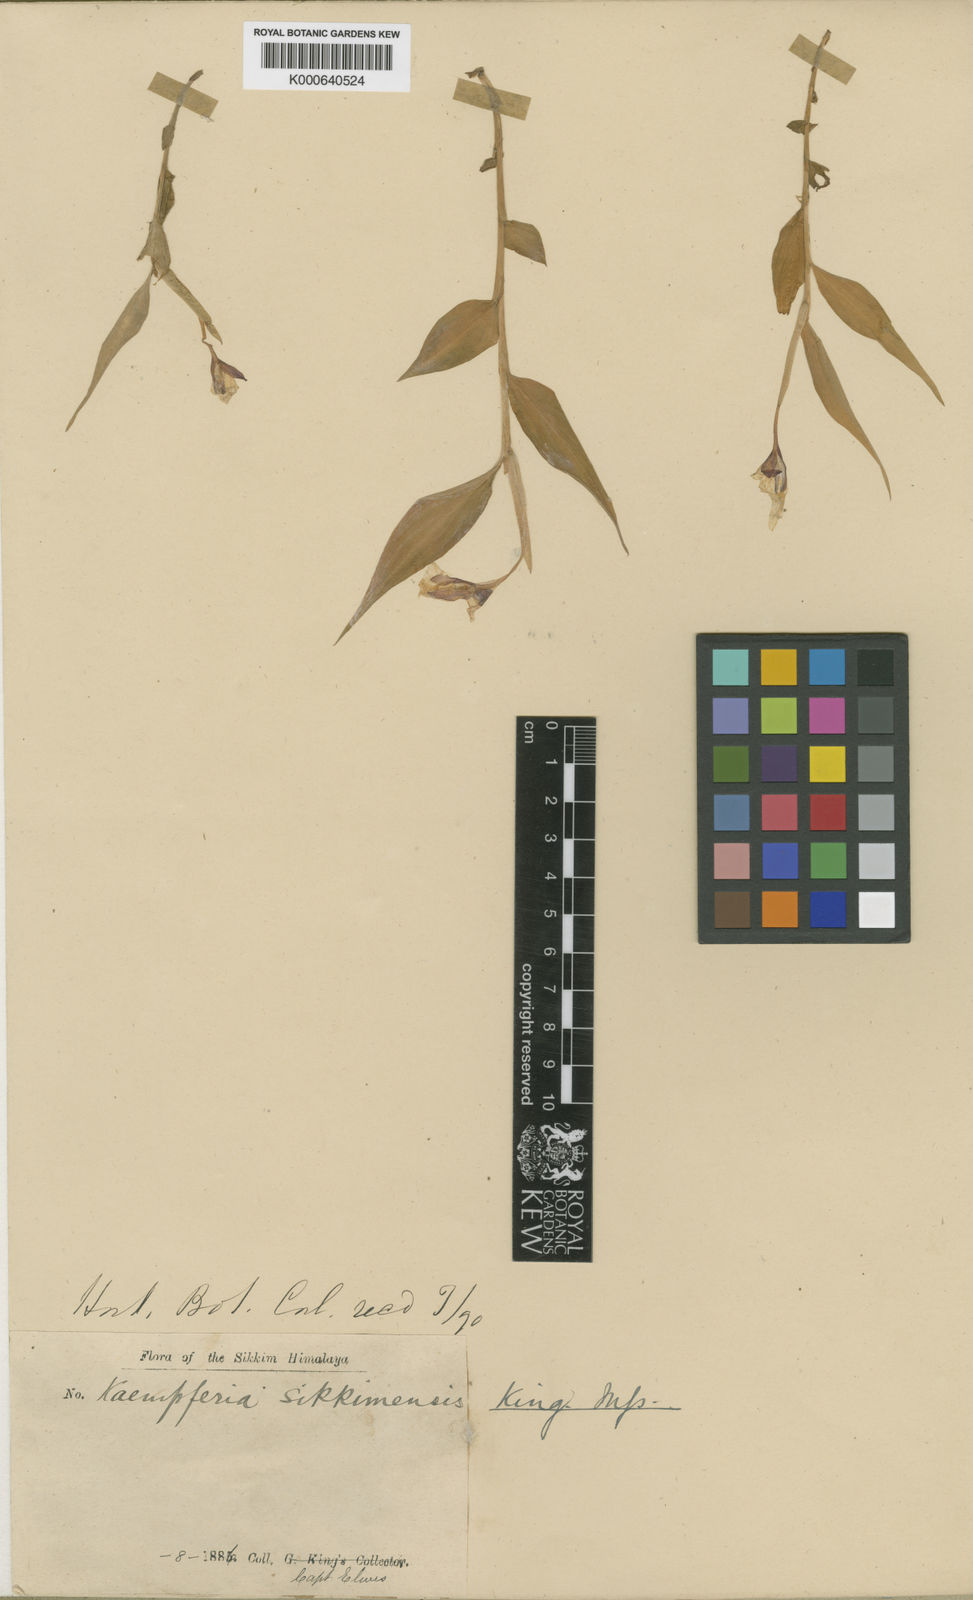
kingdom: Plantae
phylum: Tracheophyta
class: Liliopsida
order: Zingiberales
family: Zingiberaceae
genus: Caulokaempferia
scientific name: Caulokaempferia sikkimensis
